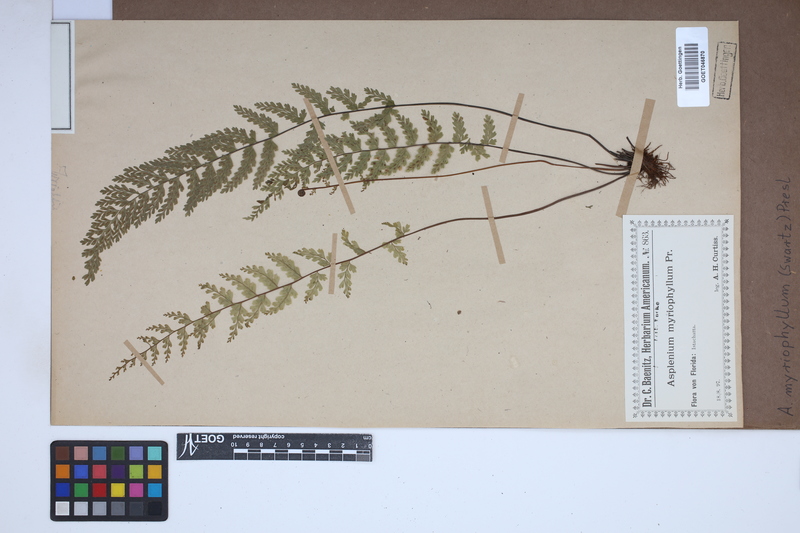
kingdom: Plantae
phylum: Tracheophyta
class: Polypodiopsida
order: Polypodiales
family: Aspleniaceae
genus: Asplenium
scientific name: Asplenium myriophyllum
